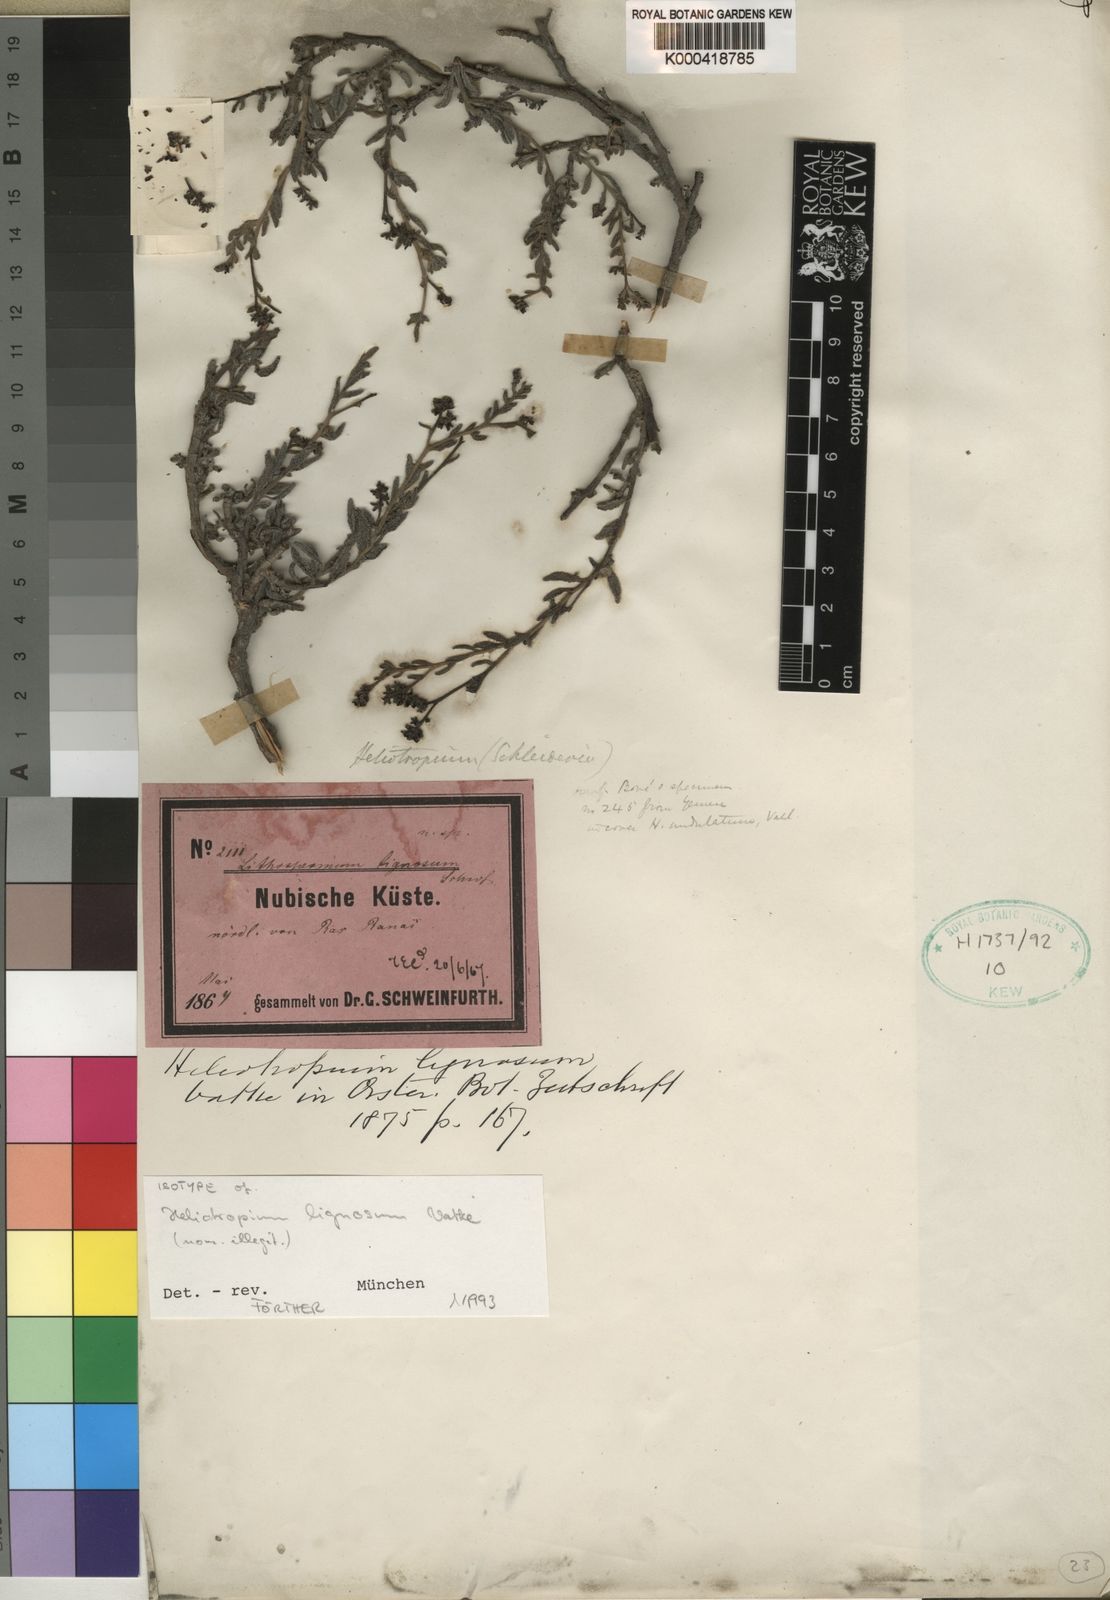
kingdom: Plantae
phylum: Tracheophyta
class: Magnoliopsida
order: Boraginales
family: Heliotropiaceae
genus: Heliotropium
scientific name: Heliotropium
